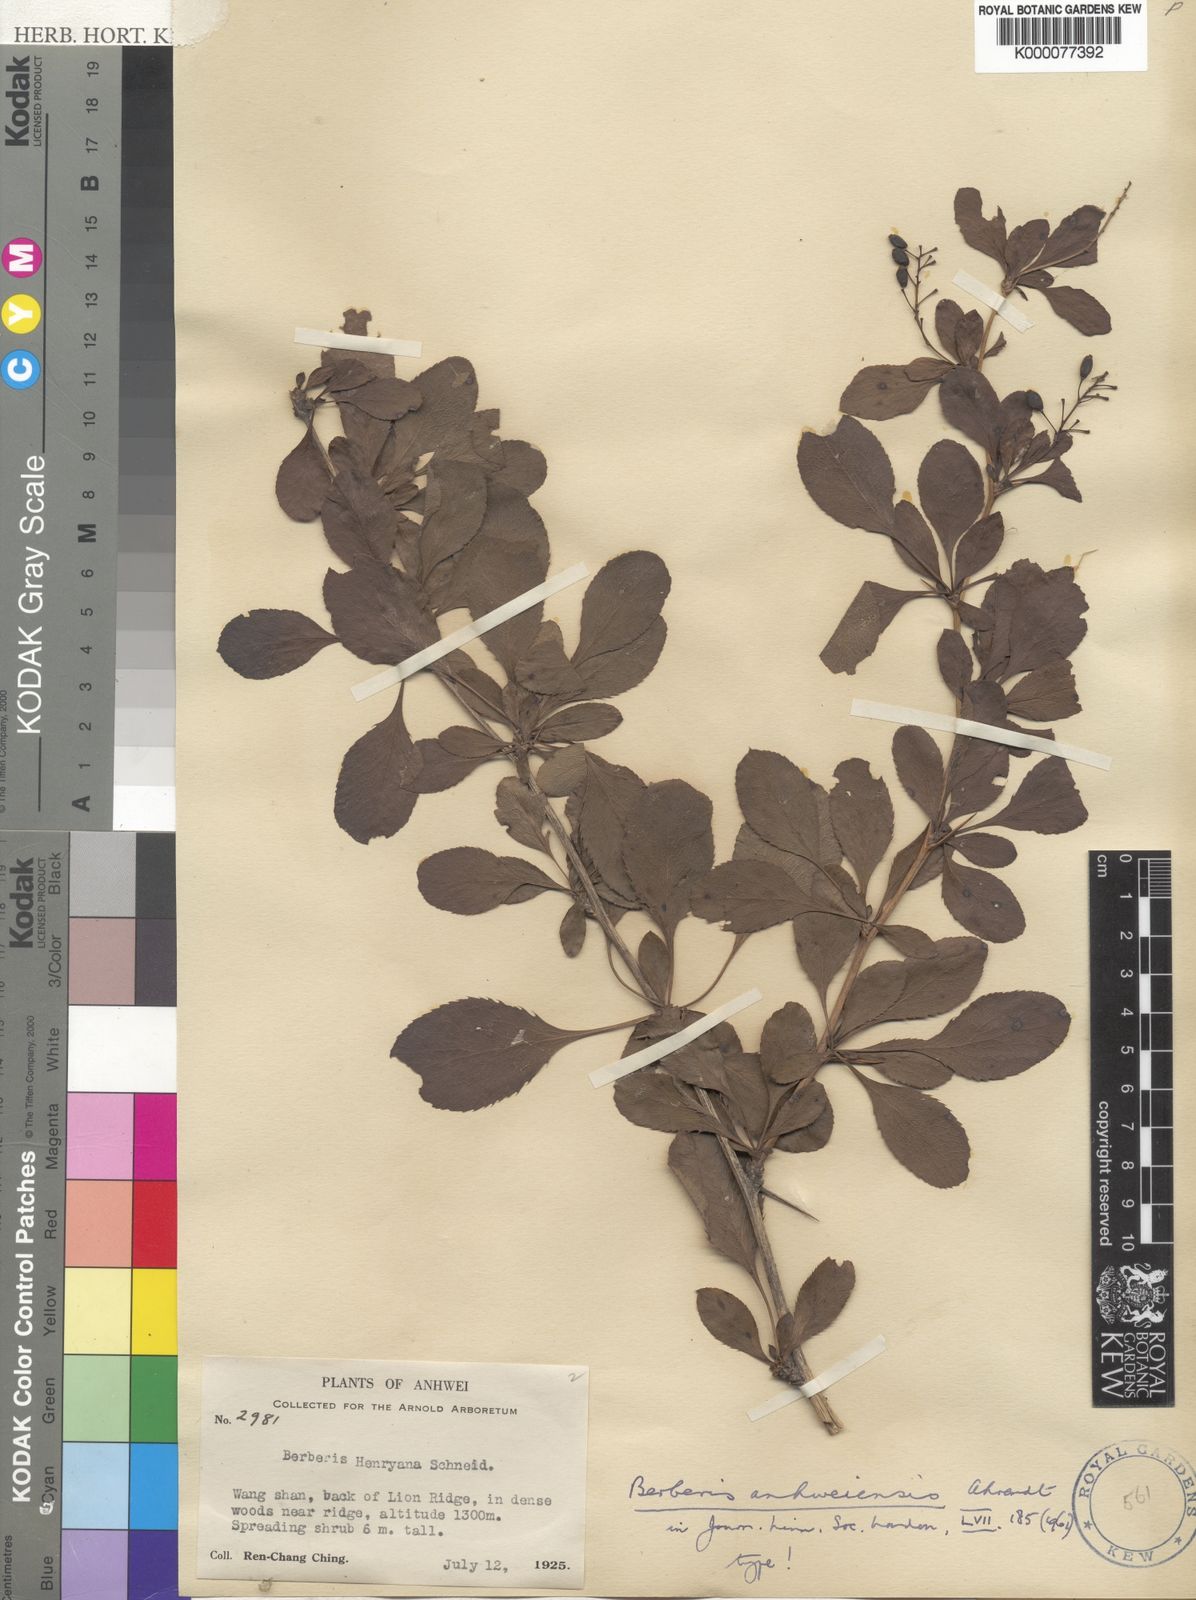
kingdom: Plantae
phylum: Tracheophyta
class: Magnoliopsida
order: Ranunculales
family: Berberidaceae
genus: Berberis
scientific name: Berberis anhweiensis
